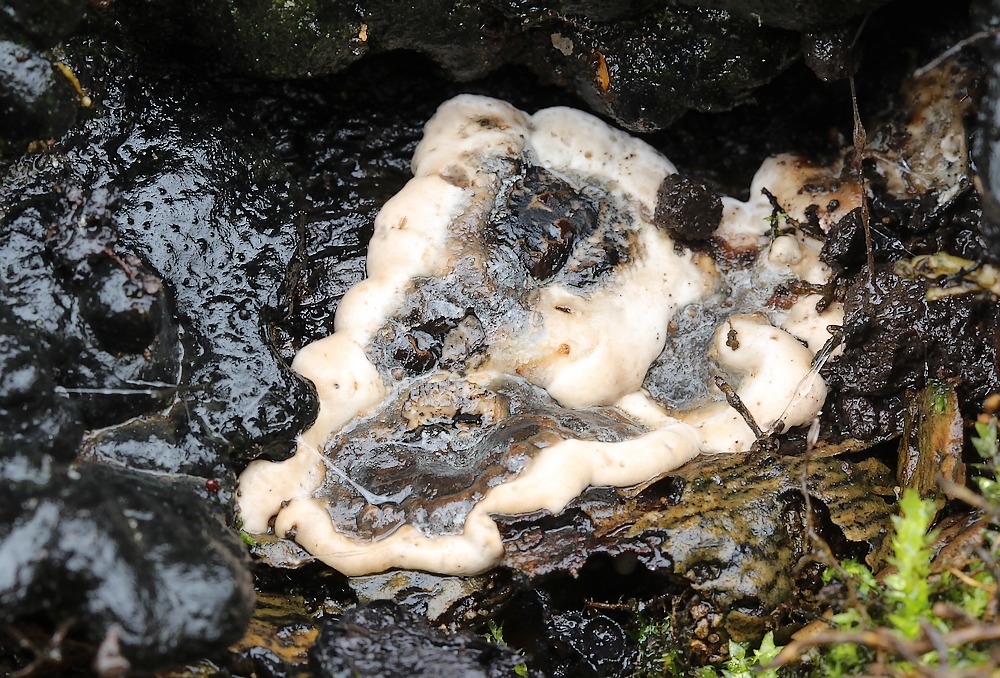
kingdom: Fungi
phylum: Ascomycota
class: Sordariomycetes
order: Xylariales
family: Xylariaceae
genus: Kretzschmaria
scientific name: Kretzschmaria deusta
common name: stor kulsvamp
